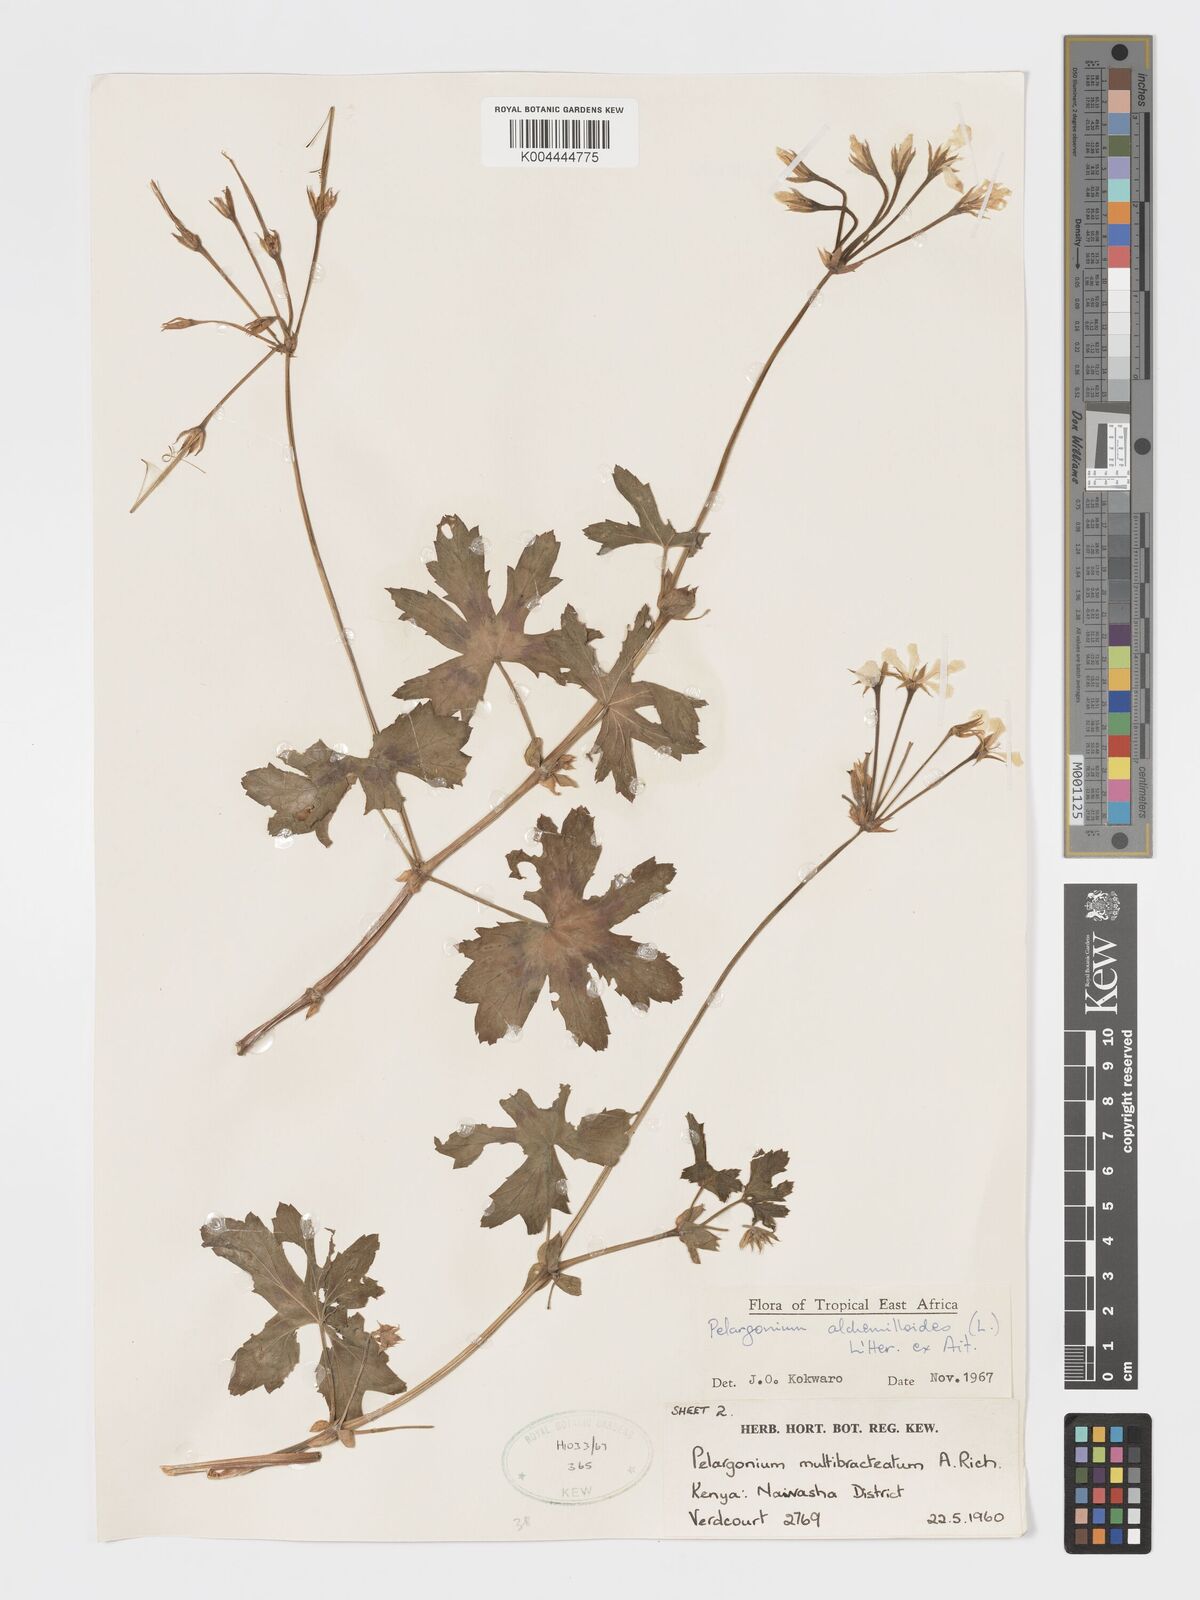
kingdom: Plantae
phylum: Tracheophyta
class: Magnoliopsida
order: Geraniales
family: Geraniaceae
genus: Pelargonium
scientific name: Pelargonium alchemilloides
